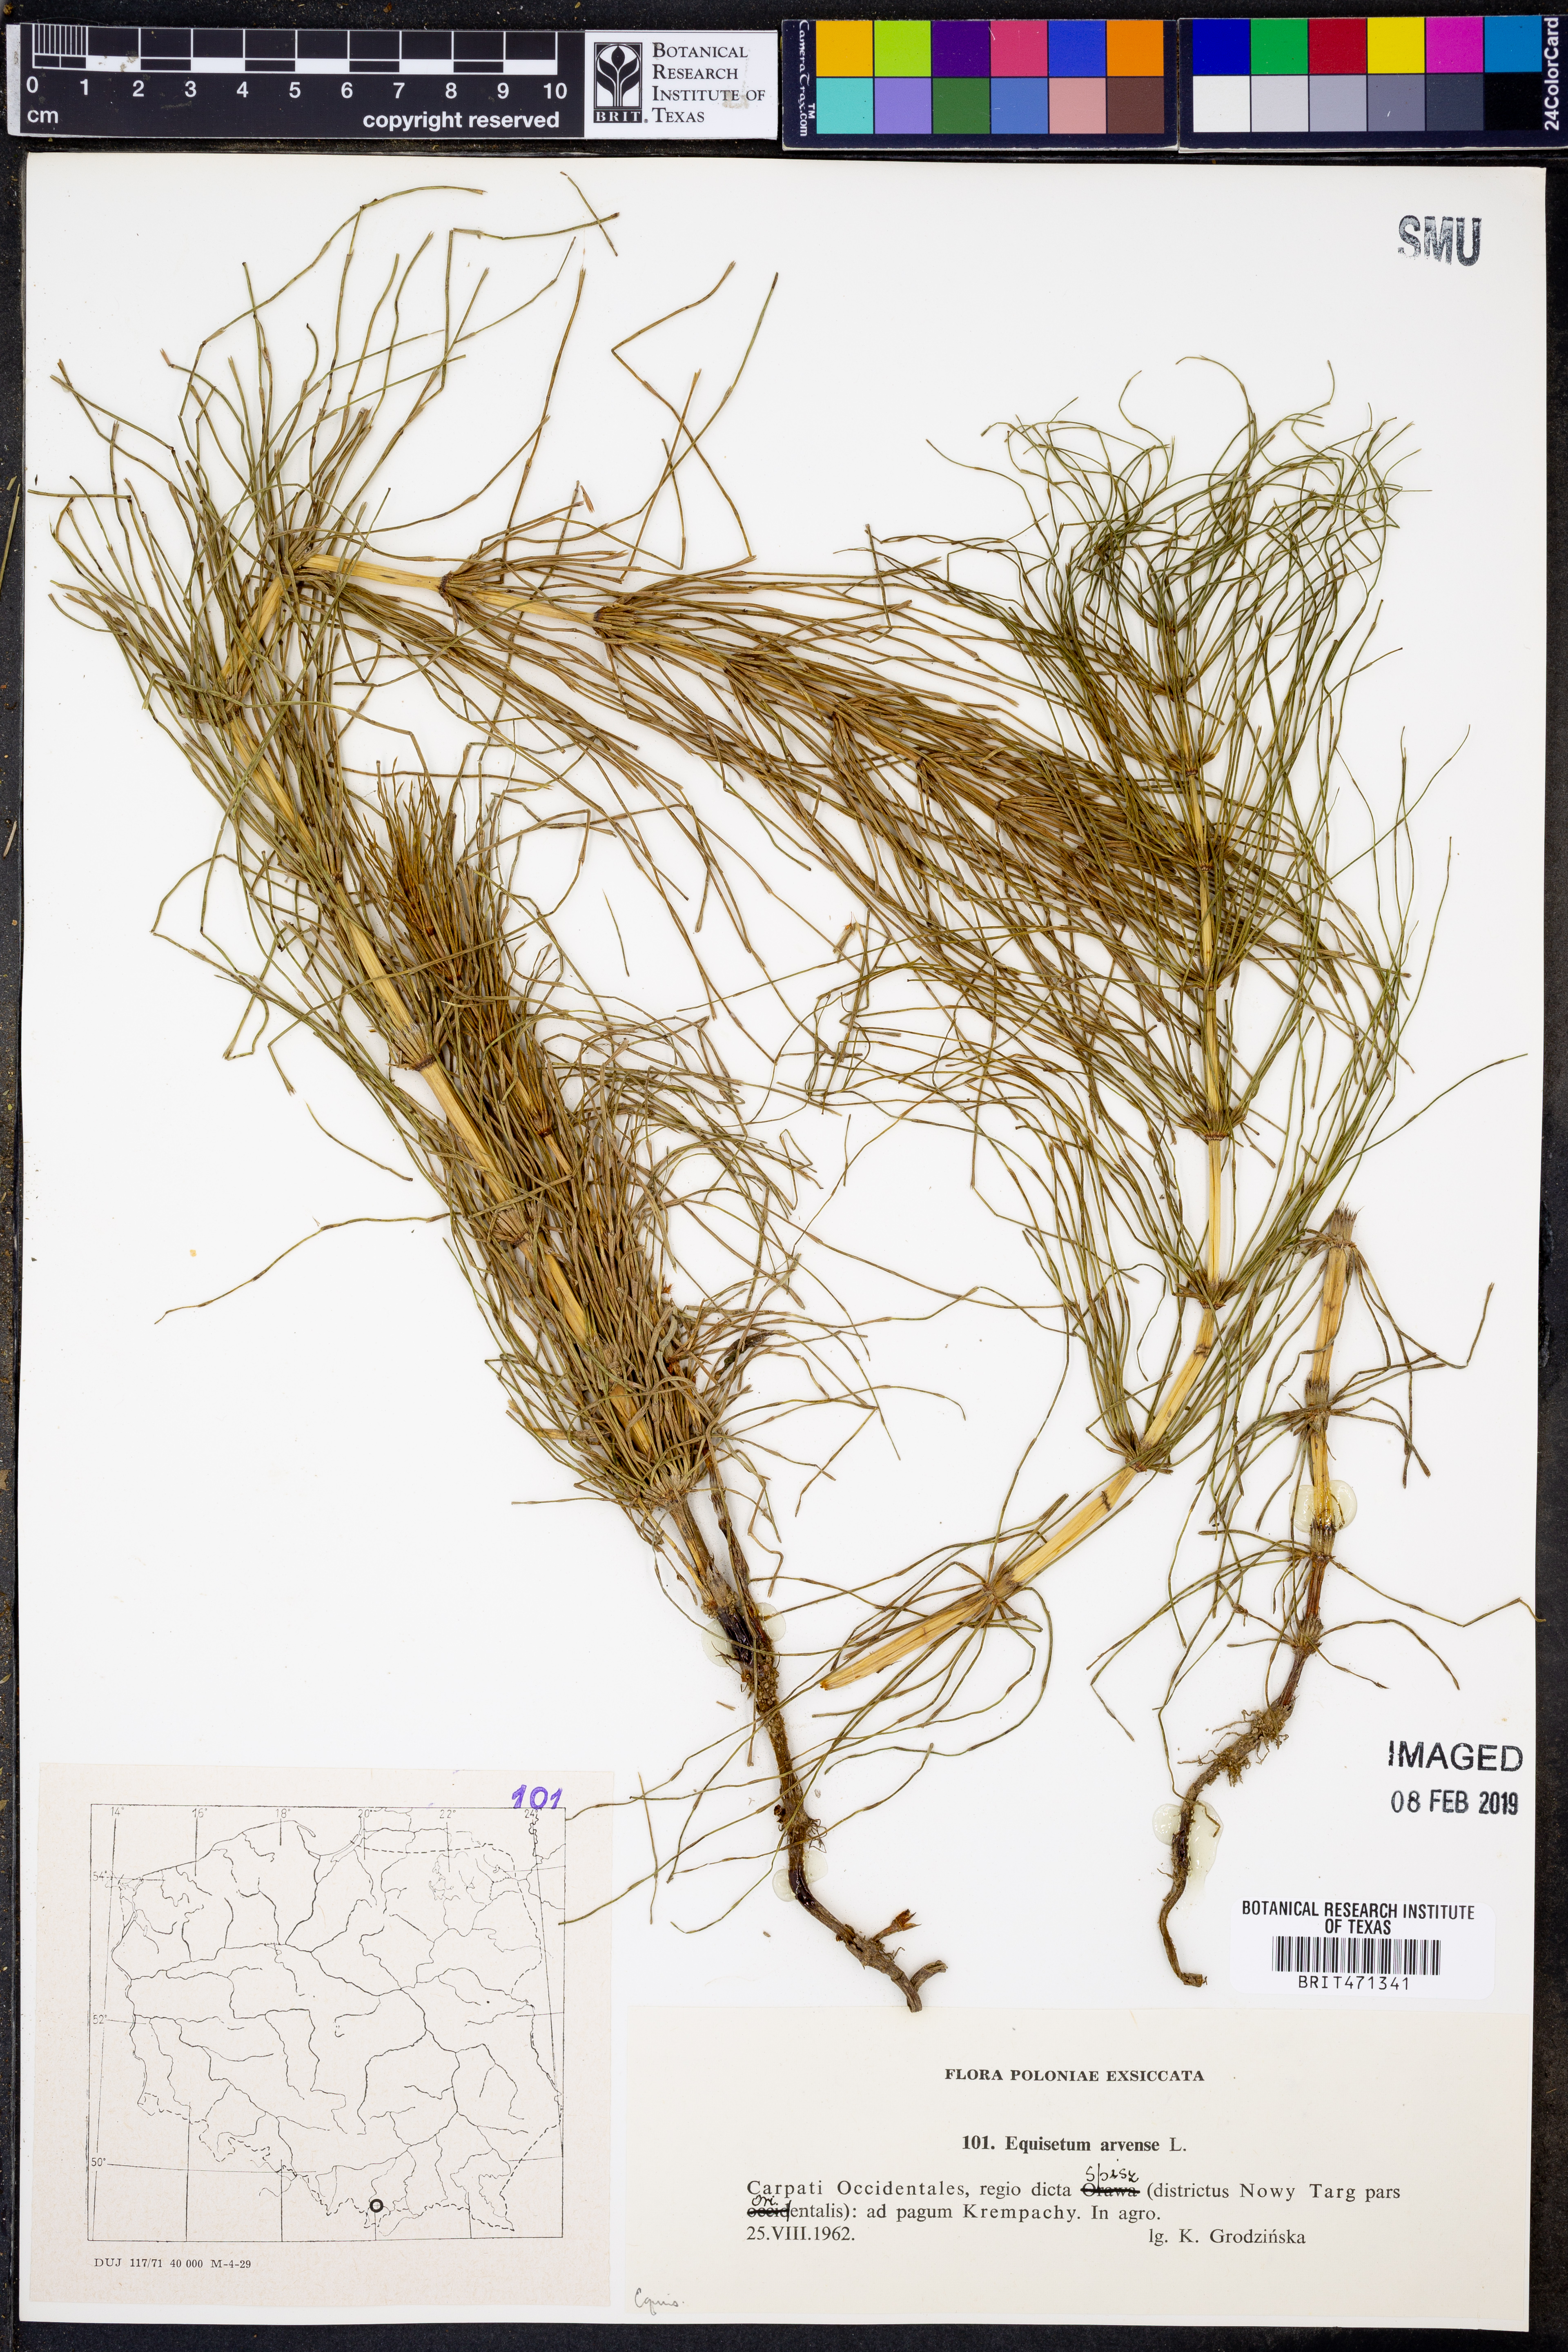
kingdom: Plantae
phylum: Tracheophyta
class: Polypodiopsida
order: Equisetales
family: Equisetaceae
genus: Equisetum
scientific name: Equisetum arvense
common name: Field horsetail
